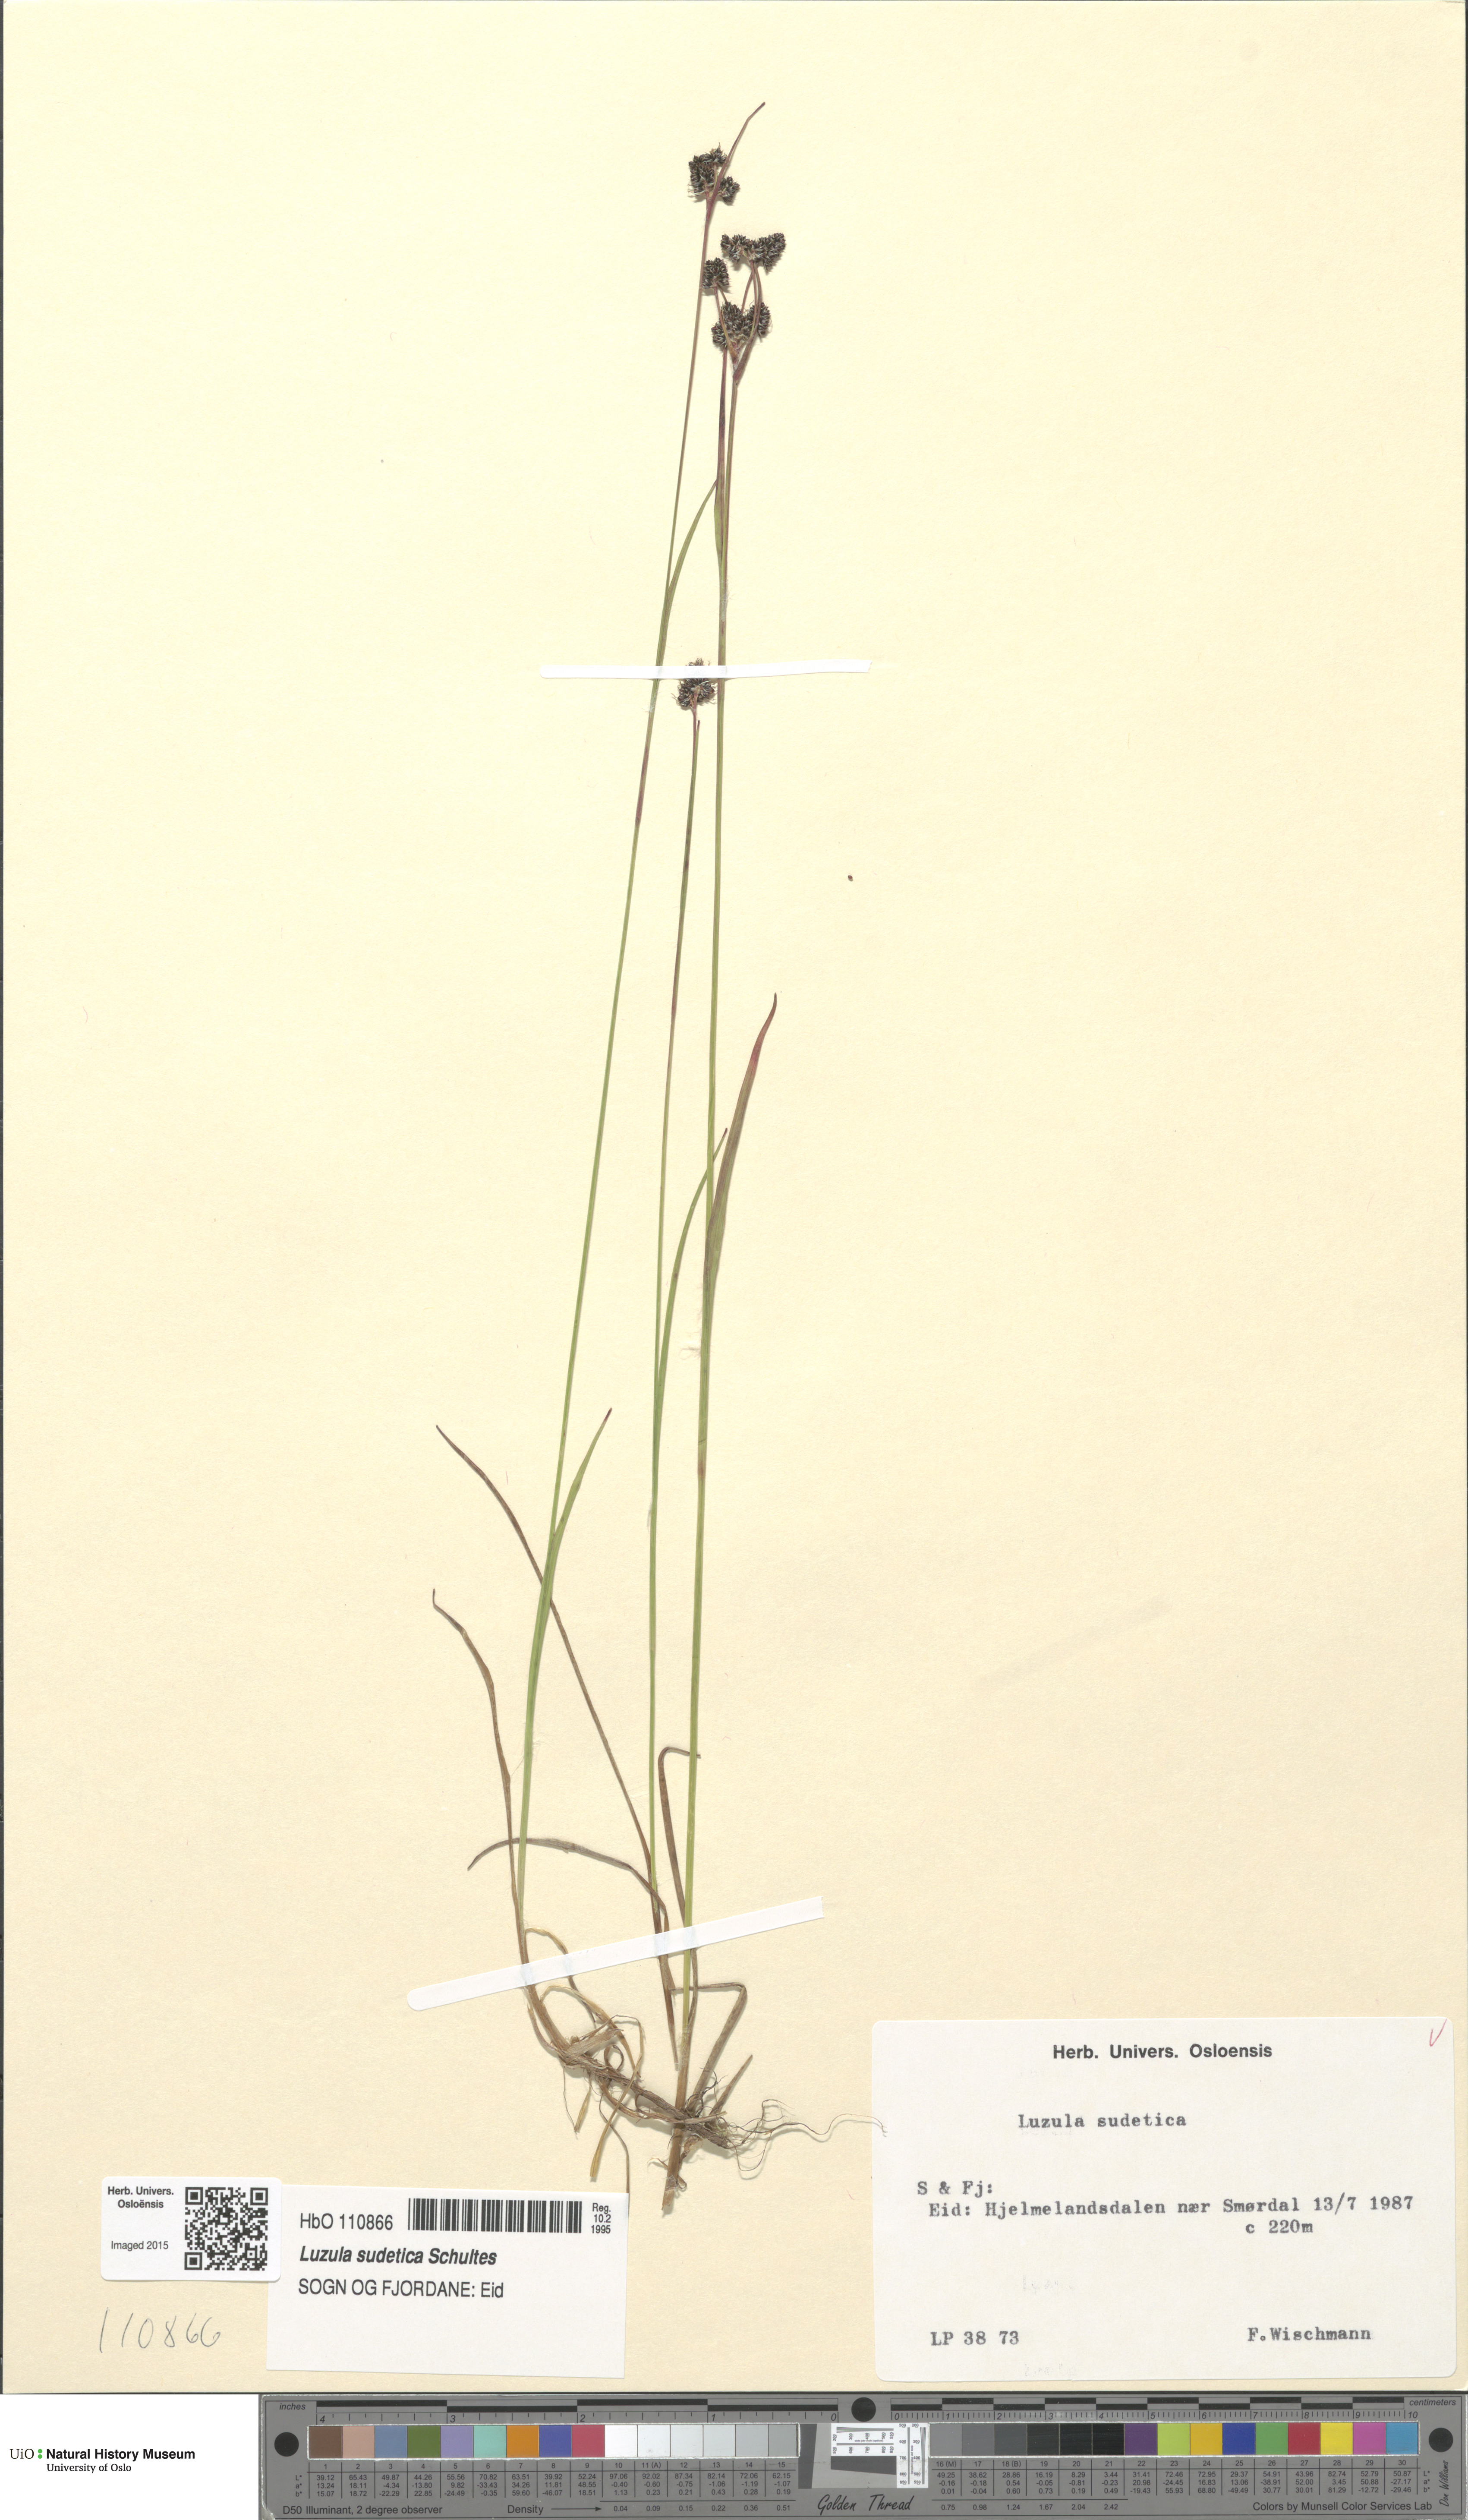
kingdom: Plantae
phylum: Tracheophyta
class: Liliopsida
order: Poales
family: Juncaceae
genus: Luzula
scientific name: Luzula sudetica
